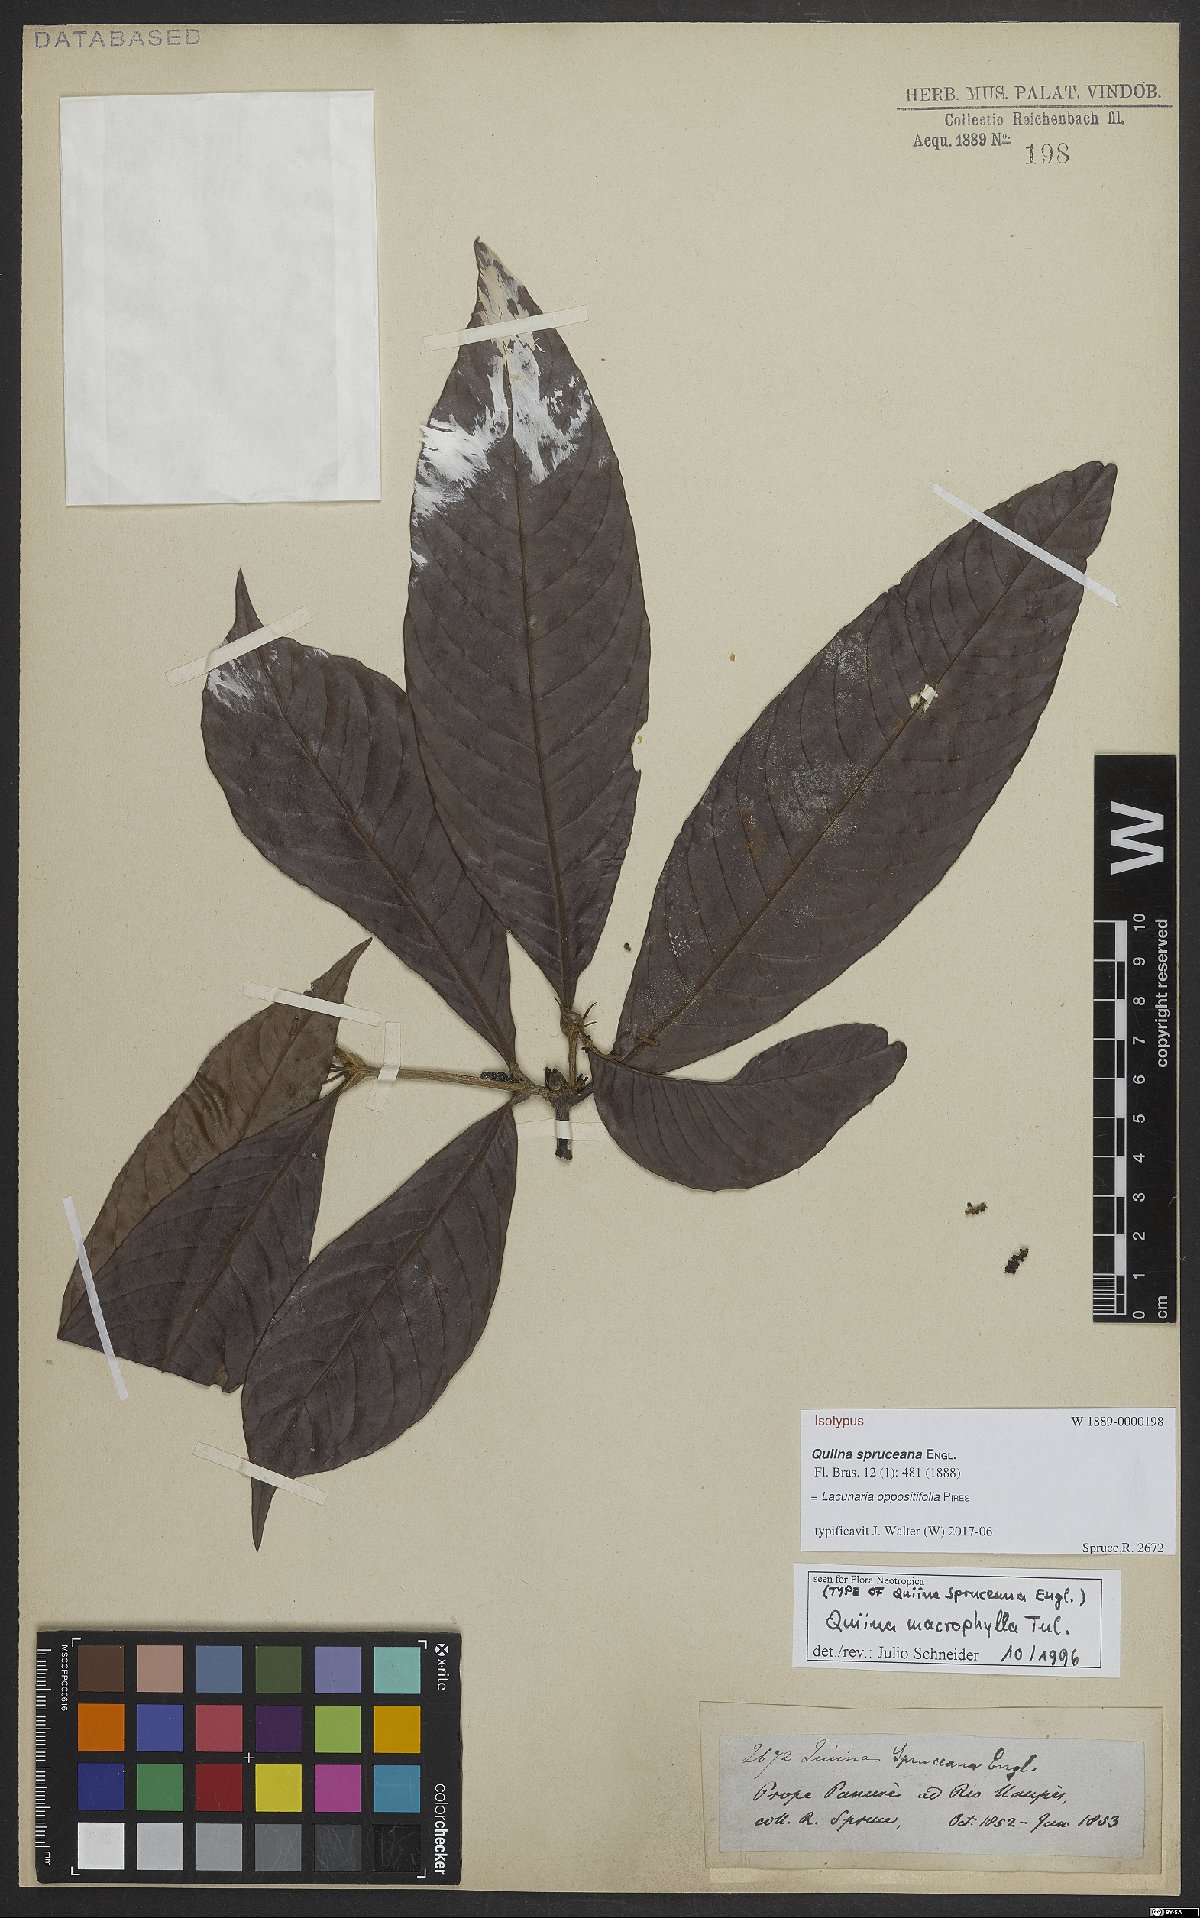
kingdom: Plantae
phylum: Tracheophyta
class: Magnoliopsida
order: Malpighiales
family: Quiinaceae
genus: Lacunaria
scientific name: Lacunaria oppositifolia
